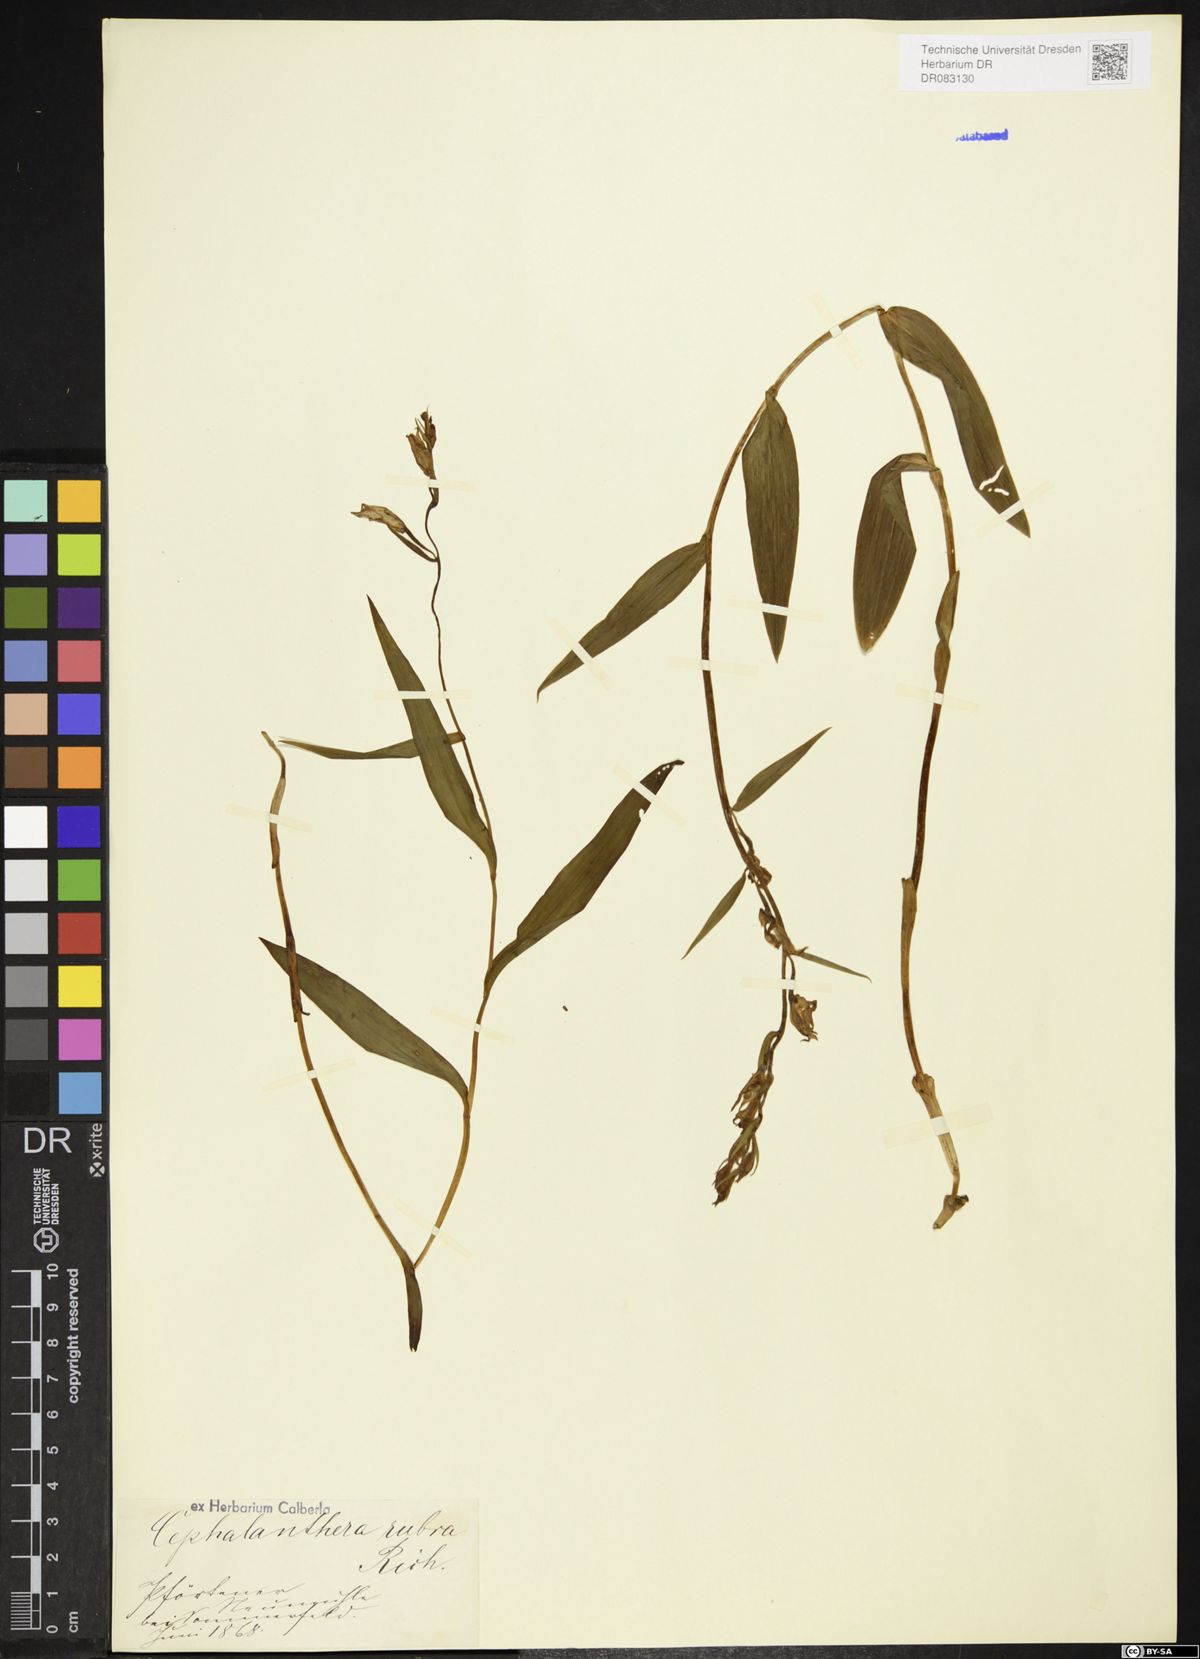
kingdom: Plantae
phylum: Tracheophyta
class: Liliopsida
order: Asparagales
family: Orchidaceae
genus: Cephalanthera
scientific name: Cephalanthera rubra
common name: Red helleborine
